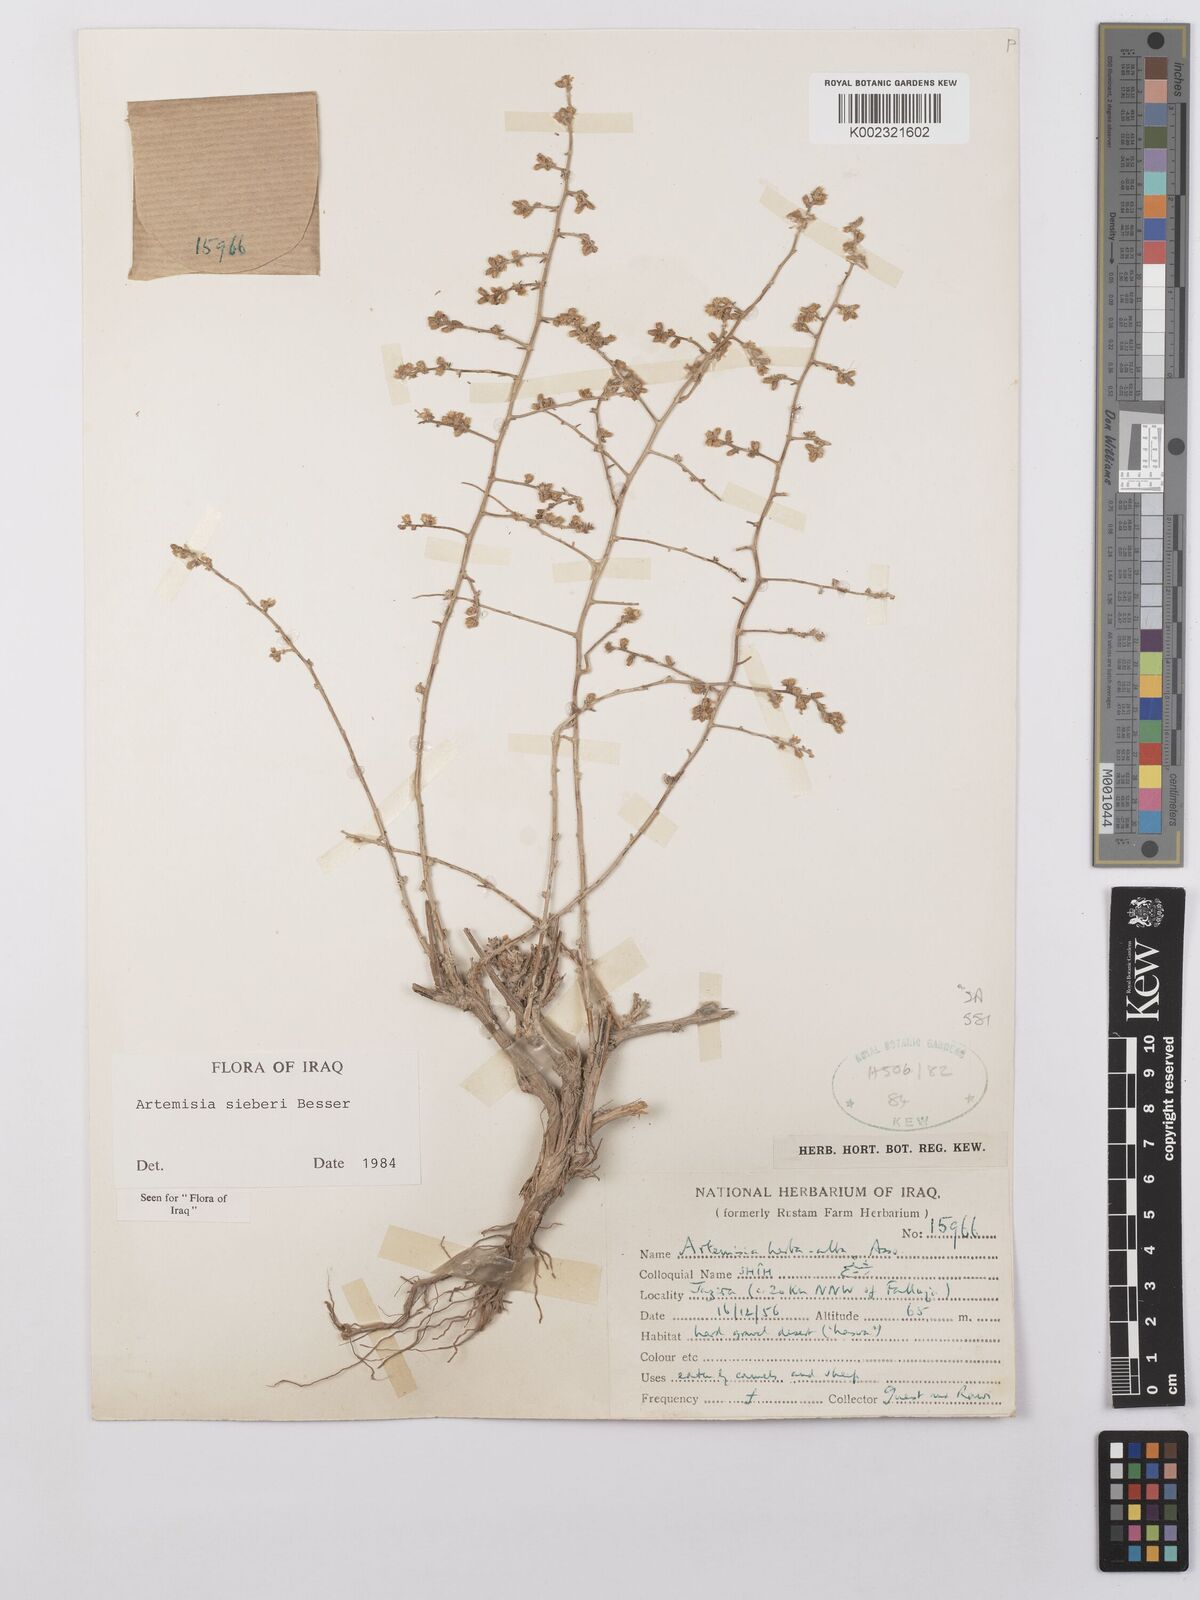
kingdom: Plantae
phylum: Tracheophyta
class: Magnoliopsida
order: Asterales
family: Asteraceae
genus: Artemisia
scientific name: Artemisia sieberi
